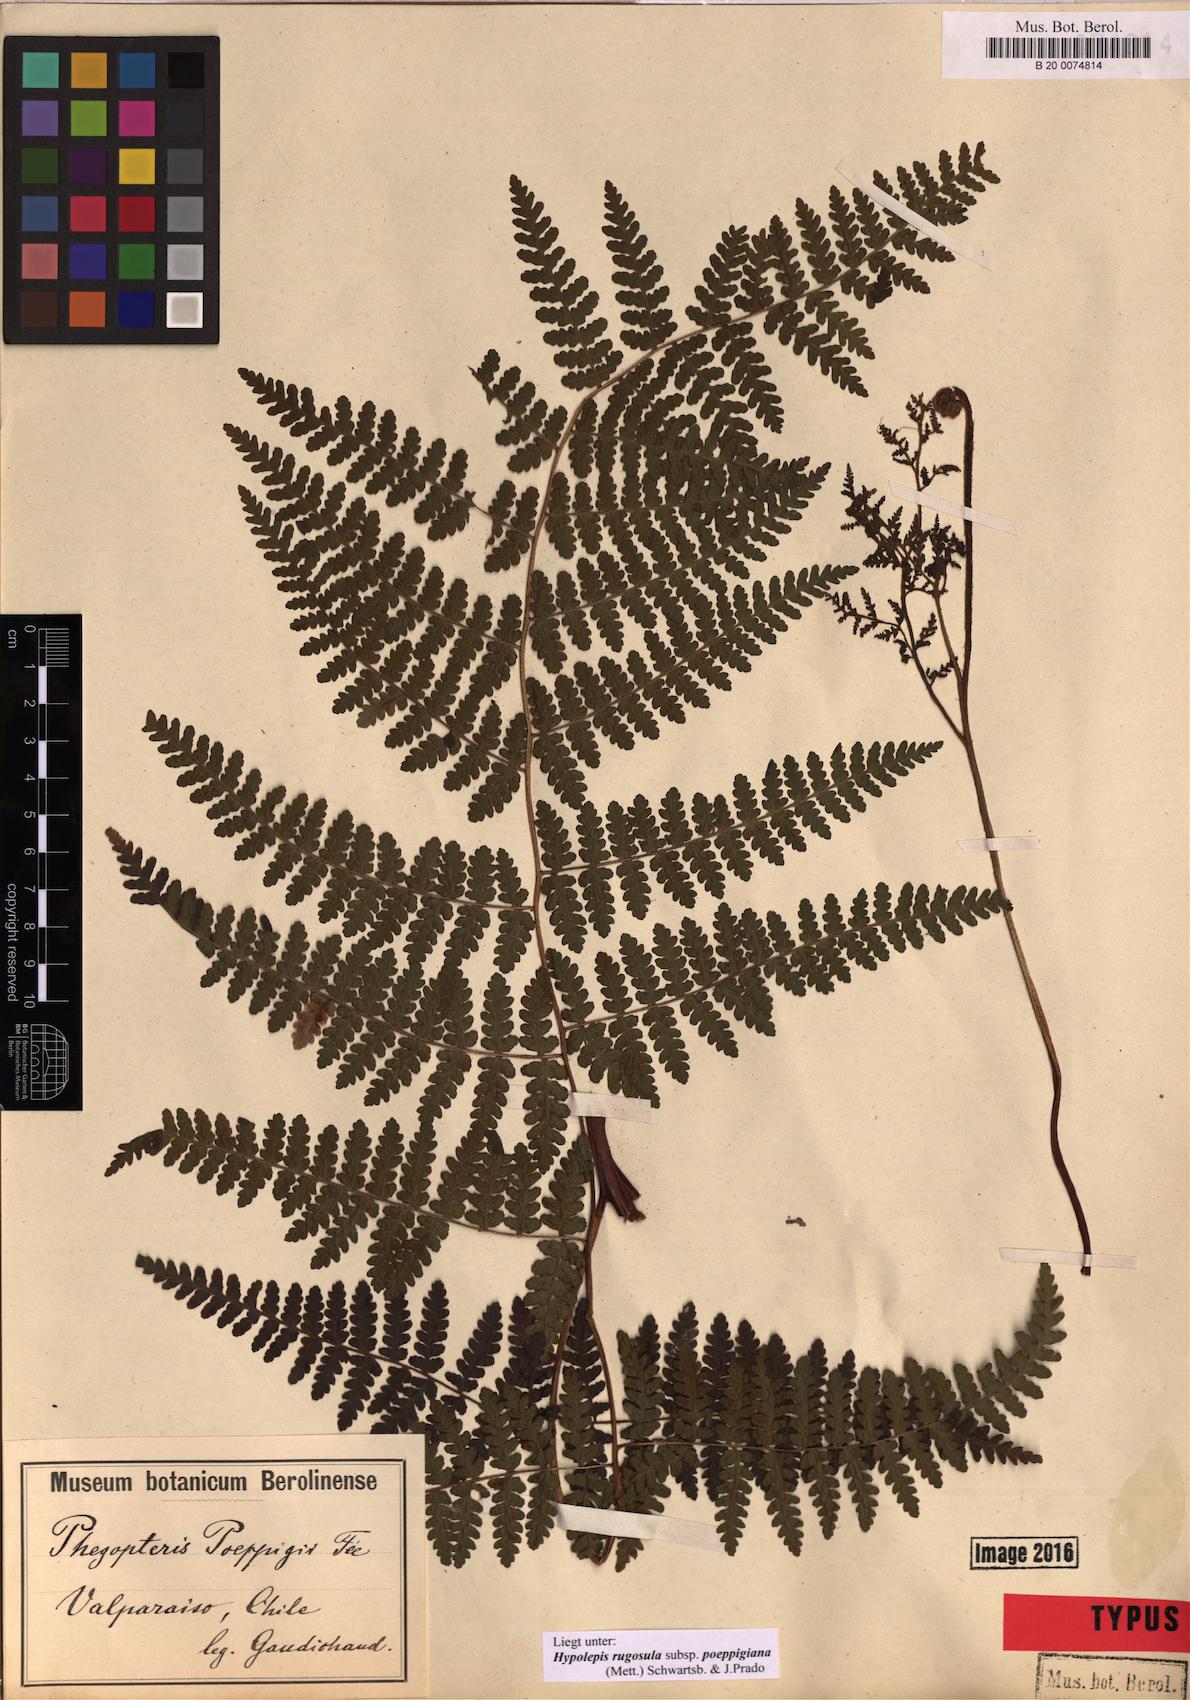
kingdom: Plantae
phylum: Tracheophyta
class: Polypodiopsida
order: Polypodiales
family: Dennstaedtiaceae
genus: Hypolepis
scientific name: Hypolepis rugosula
